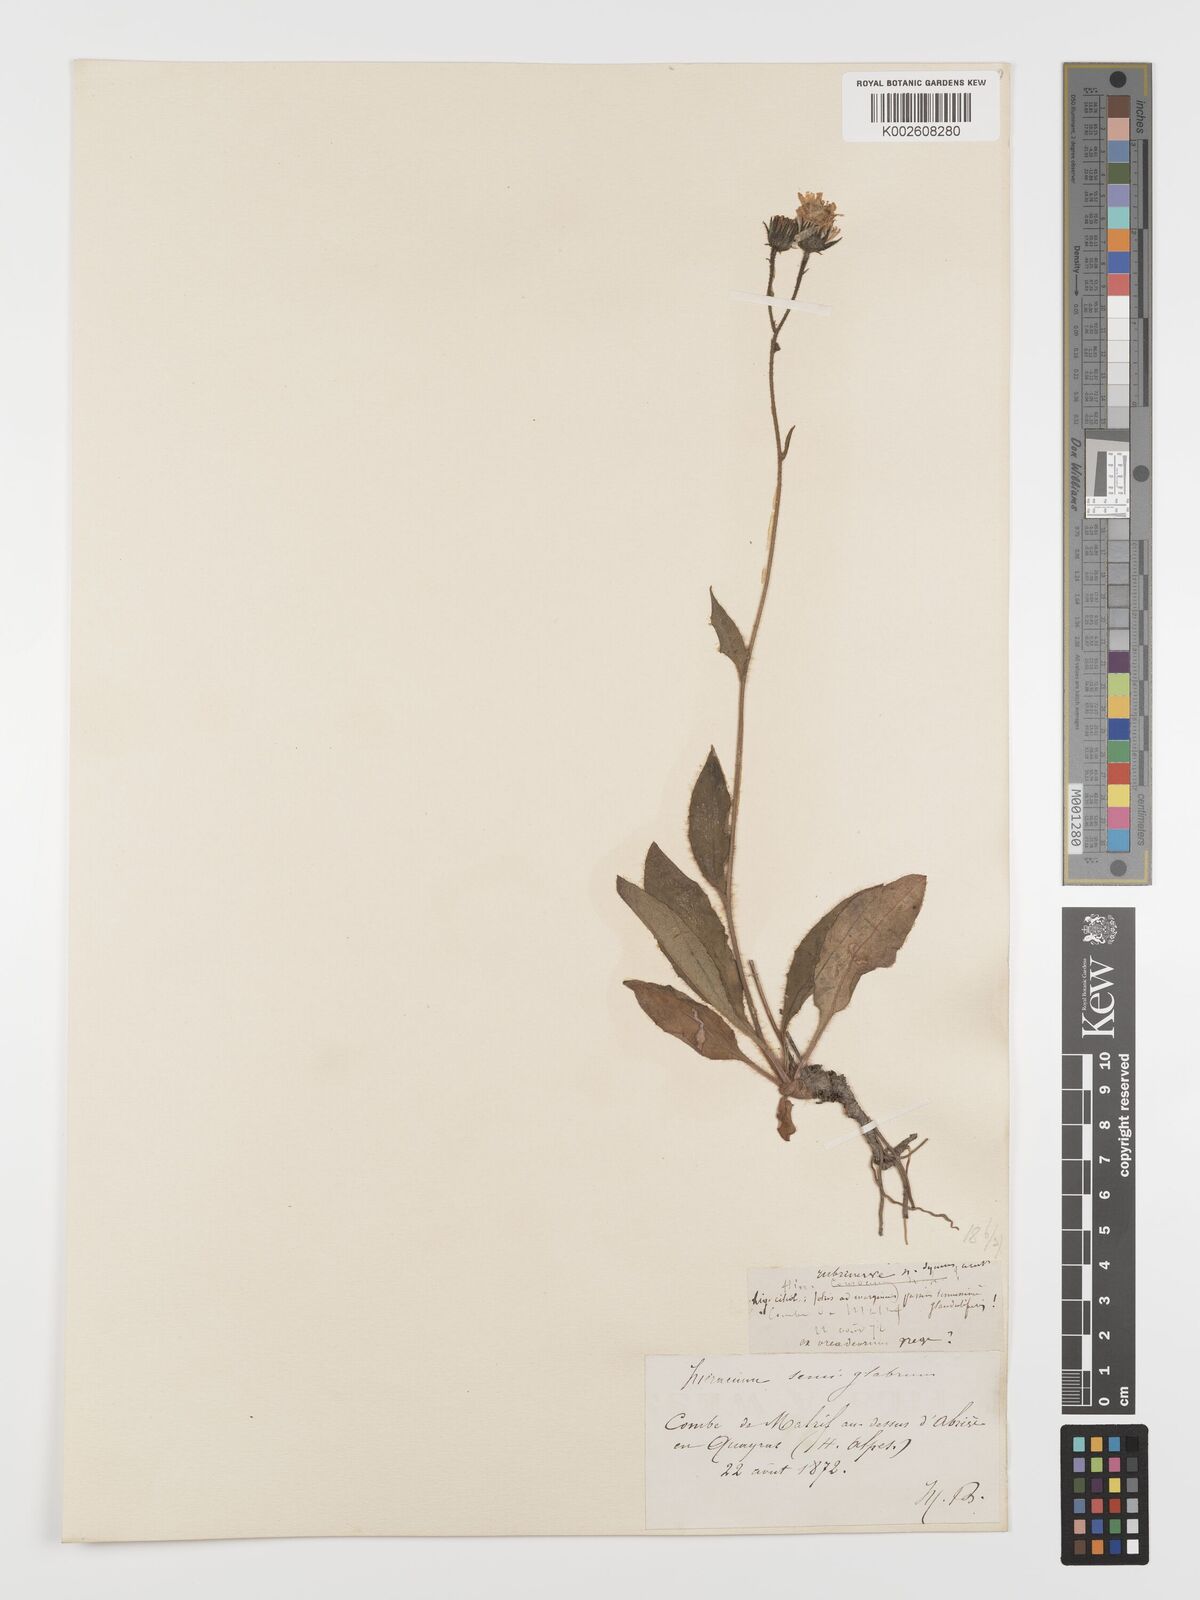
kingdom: Plantae
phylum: Tracheophyta
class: Magnoliopsida
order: Asterales
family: Asteraceae
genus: Hieracium
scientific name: Hieracium
